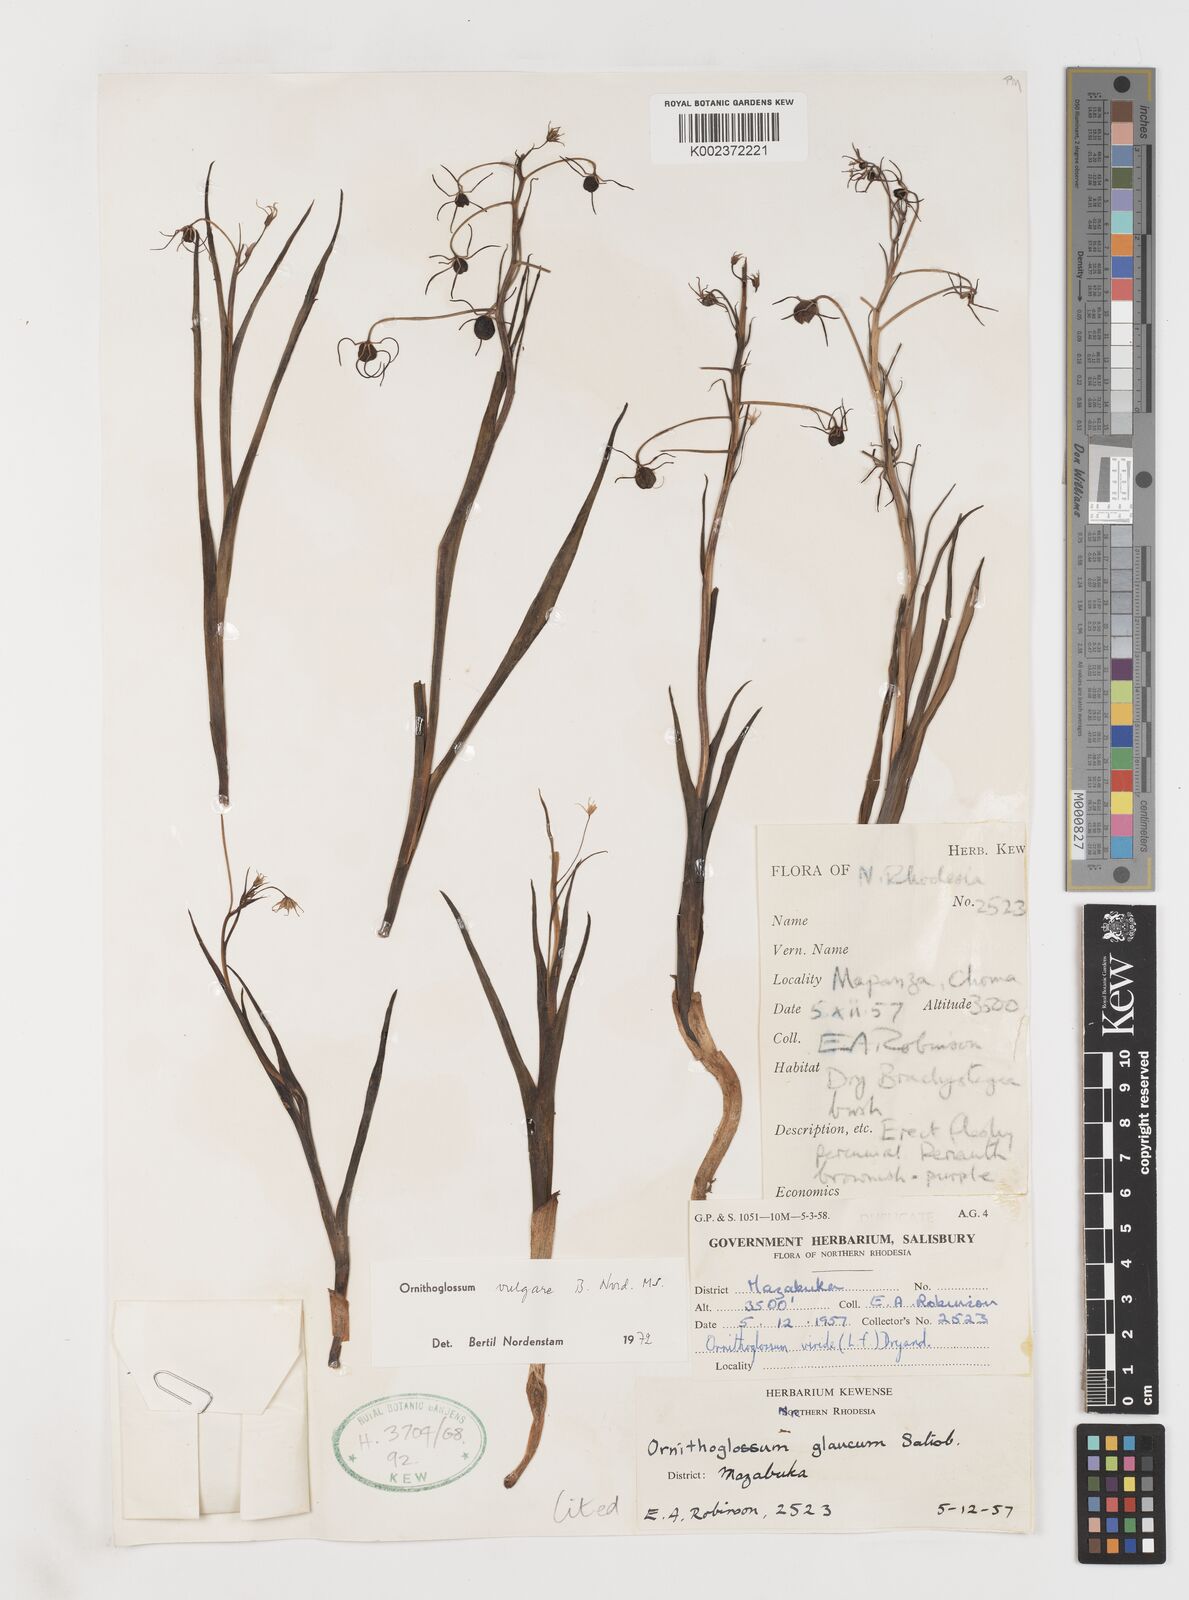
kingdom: Plantae
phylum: Tracheophyta
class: Liliopsida
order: Liliales
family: Colchicaceae
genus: Ornithoglossum
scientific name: Ornithoglossum vulgare
